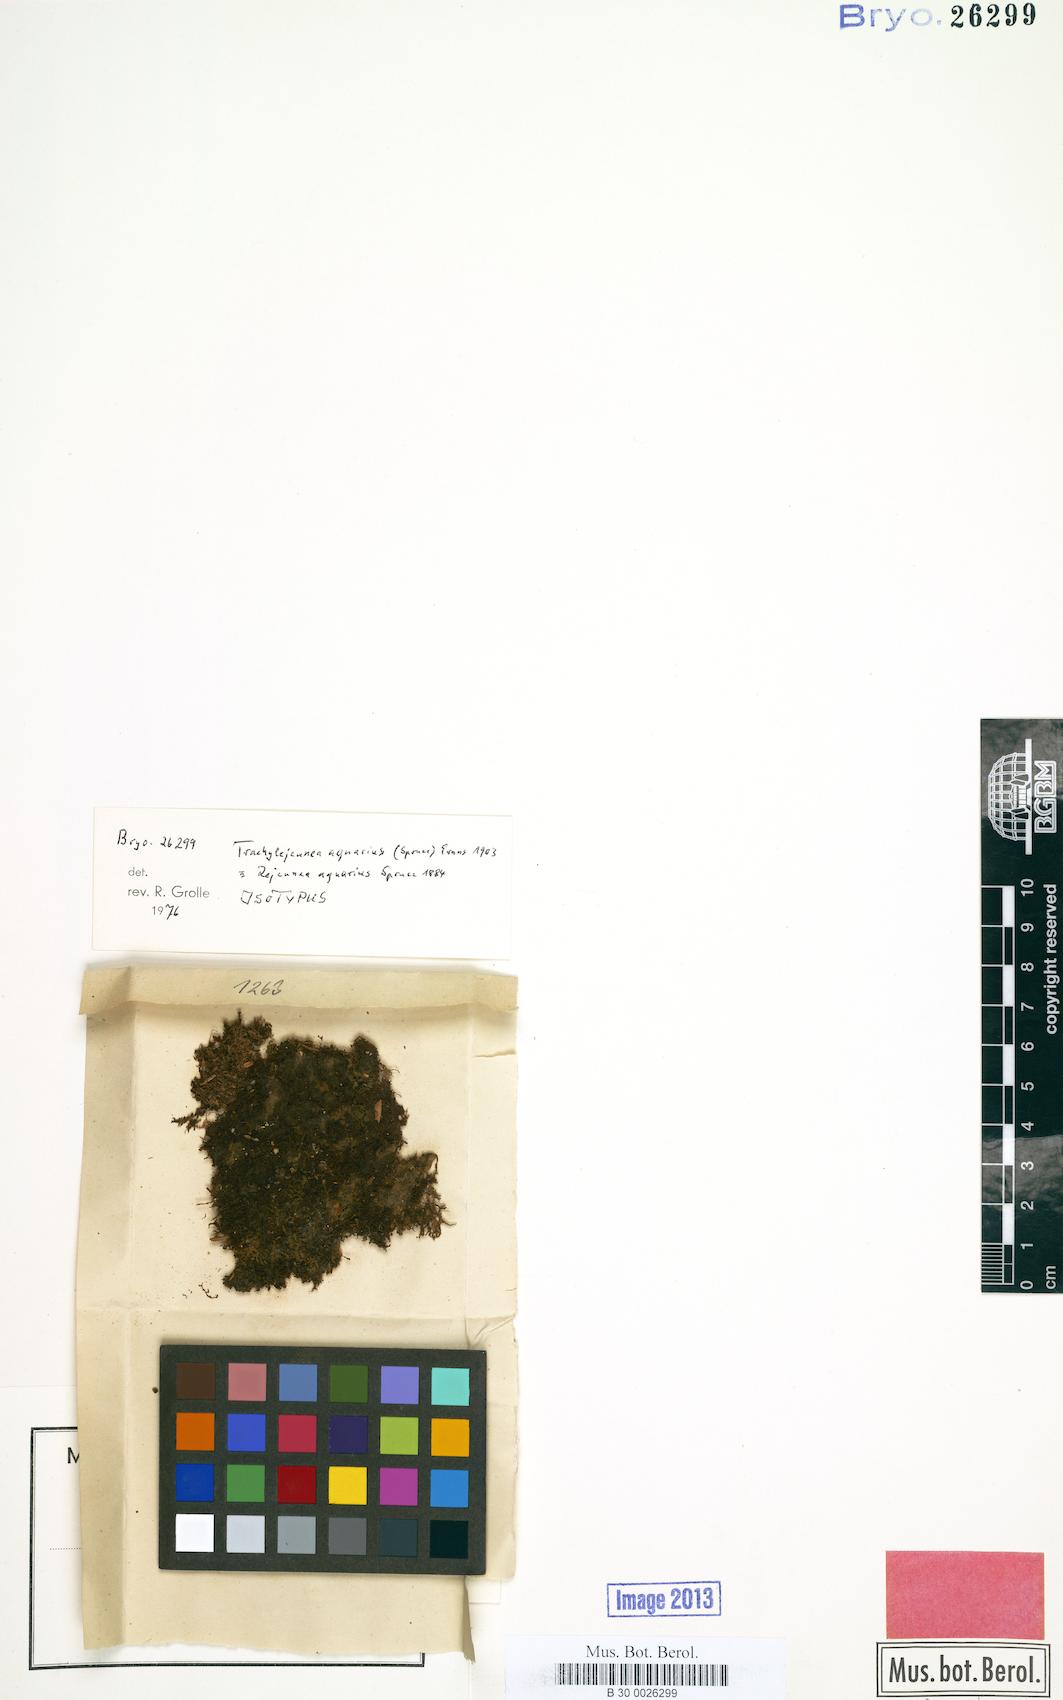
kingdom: Plantae
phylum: Marchantiophyta
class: Jungermanniopsida
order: Porellales
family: Lejeuneaceae
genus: Xylolejeunea
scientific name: Xylolejeunea aquarius
